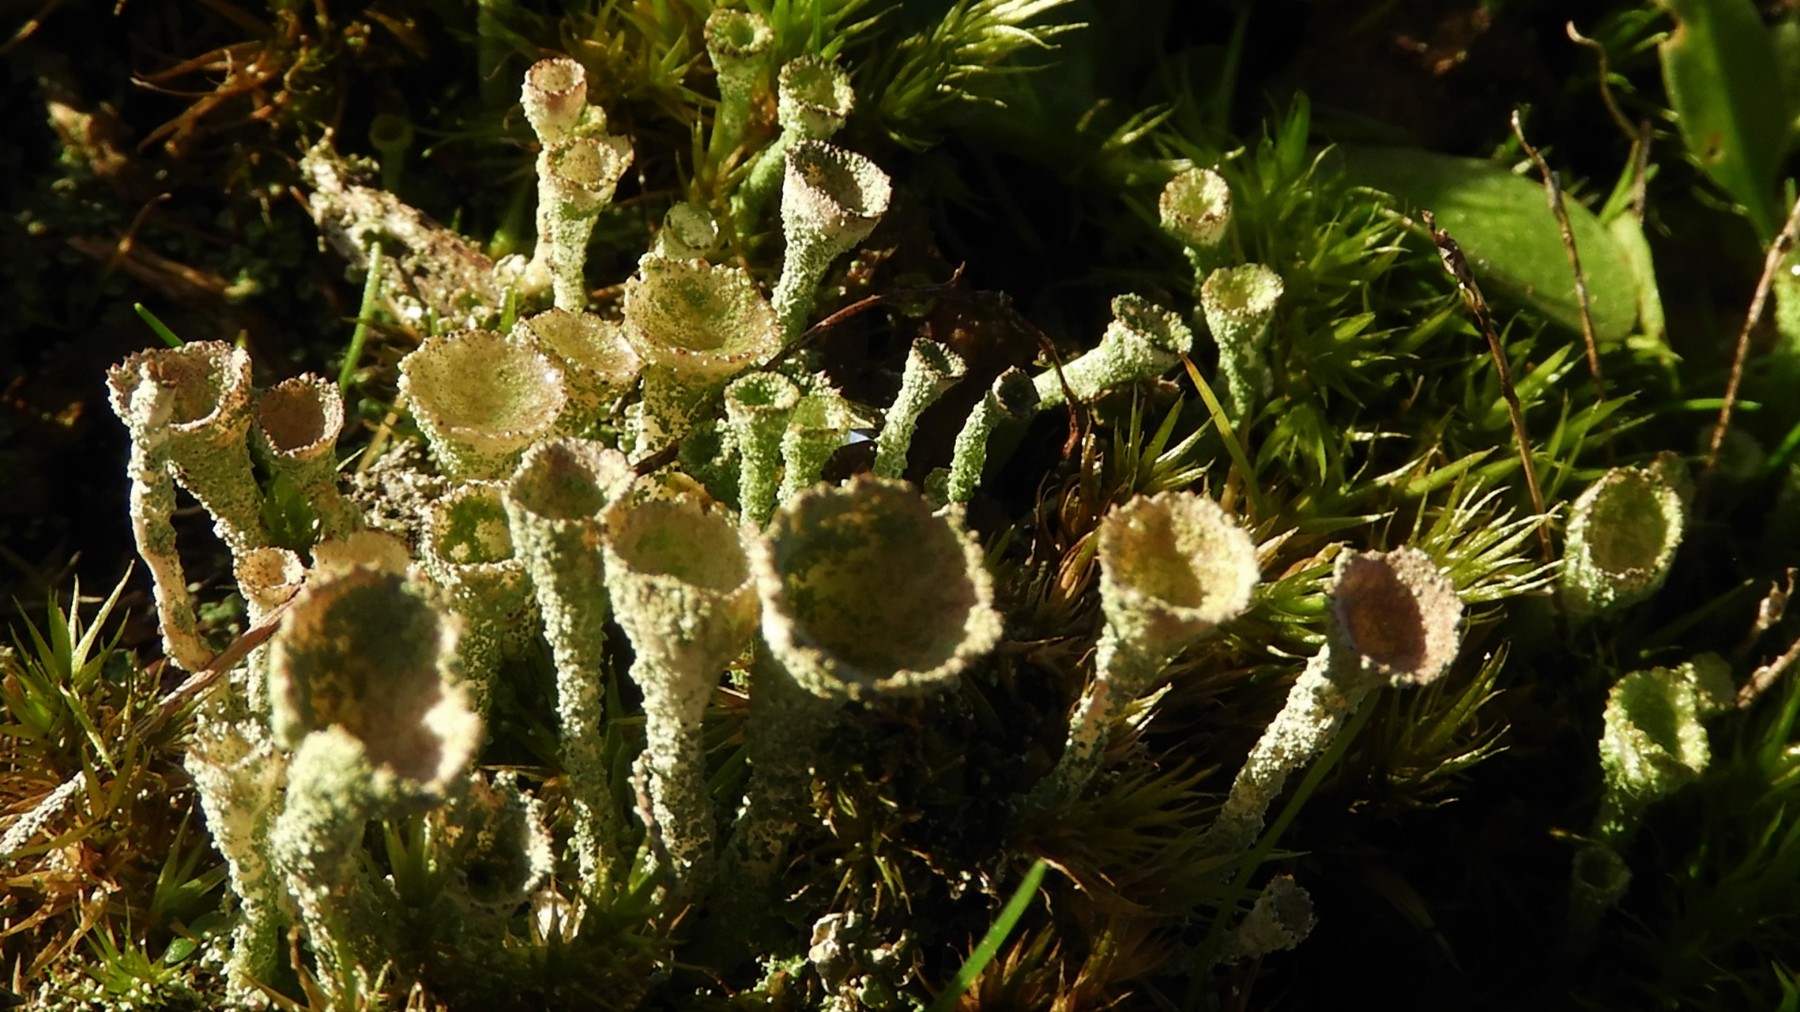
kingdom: Fungi
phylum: Ascomycota
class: Lecanoromycetes
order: Lecanorales
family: Cladoniaceae
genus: Cladonia
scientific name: Cladonia
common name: brungrøn bægerlav
